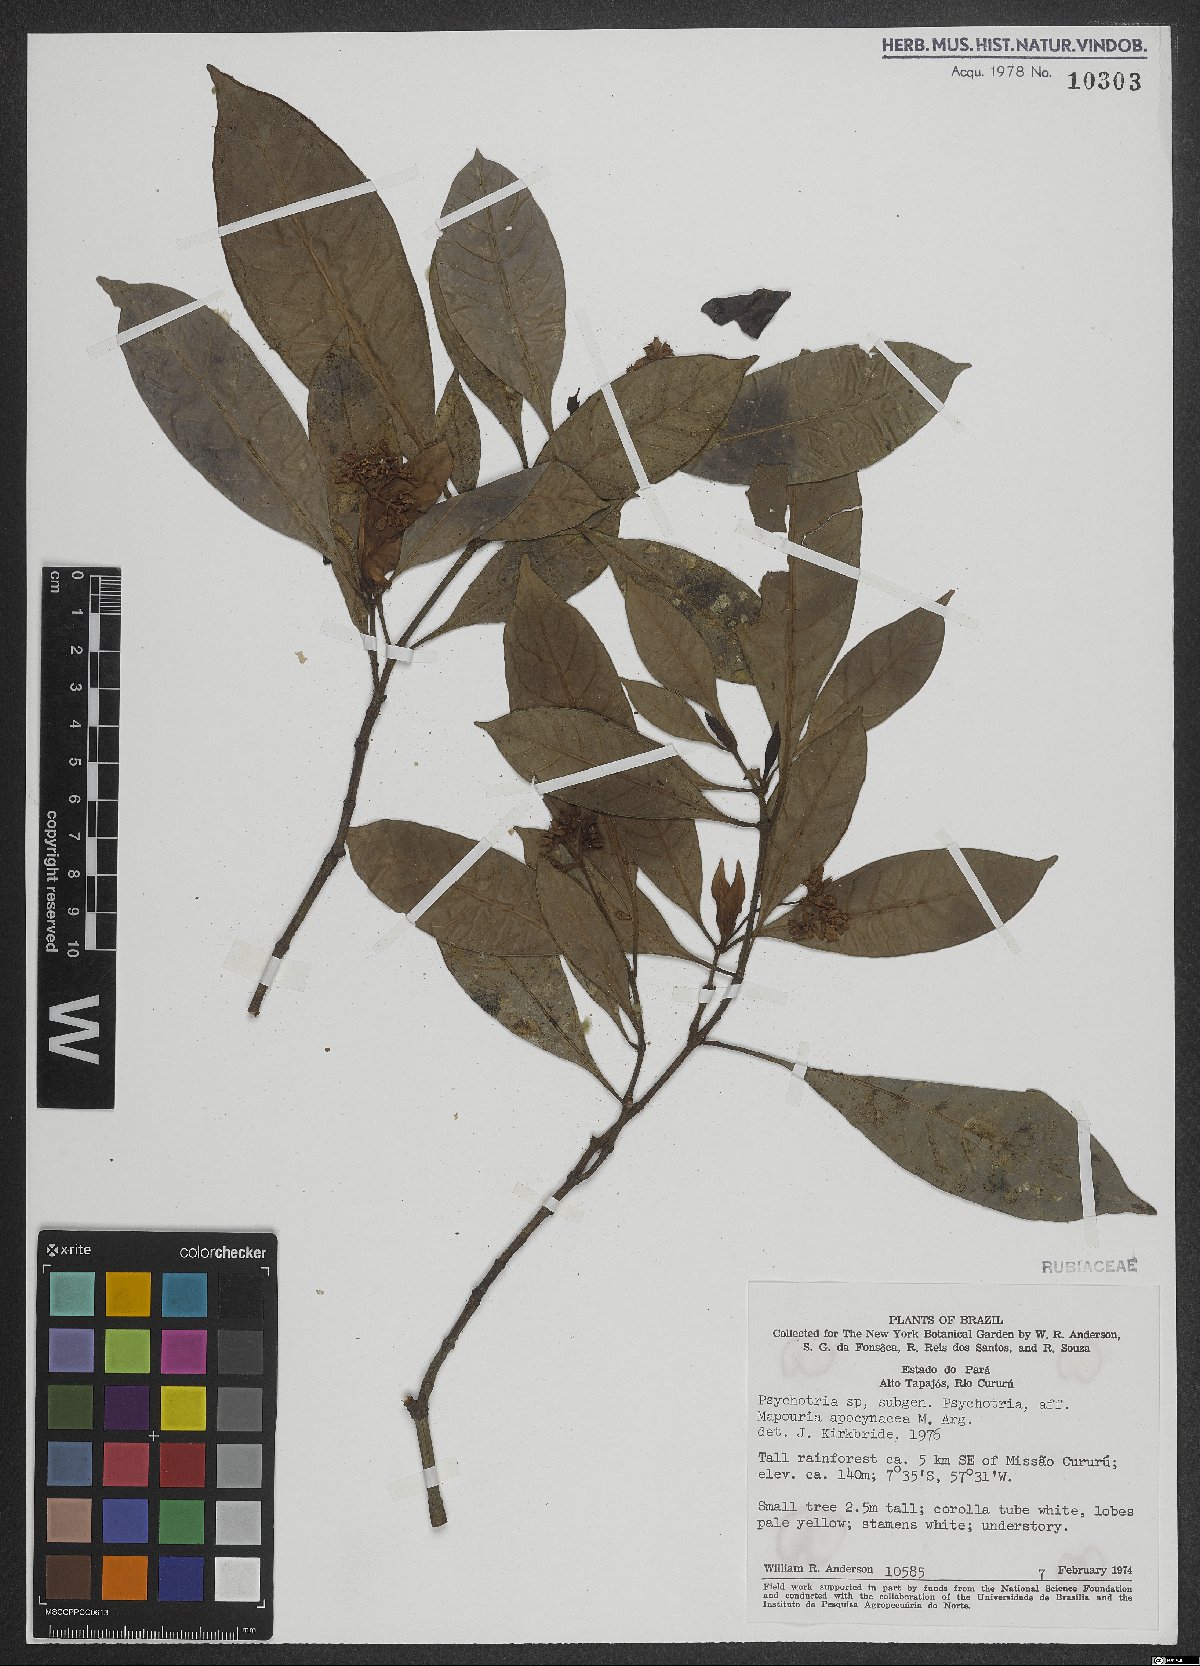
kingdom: Plantae
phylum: Tracheophyta
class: Magnoliopsida
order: Gentianales
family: Rubiaceae
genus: Psychotria
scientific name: Psychotria
